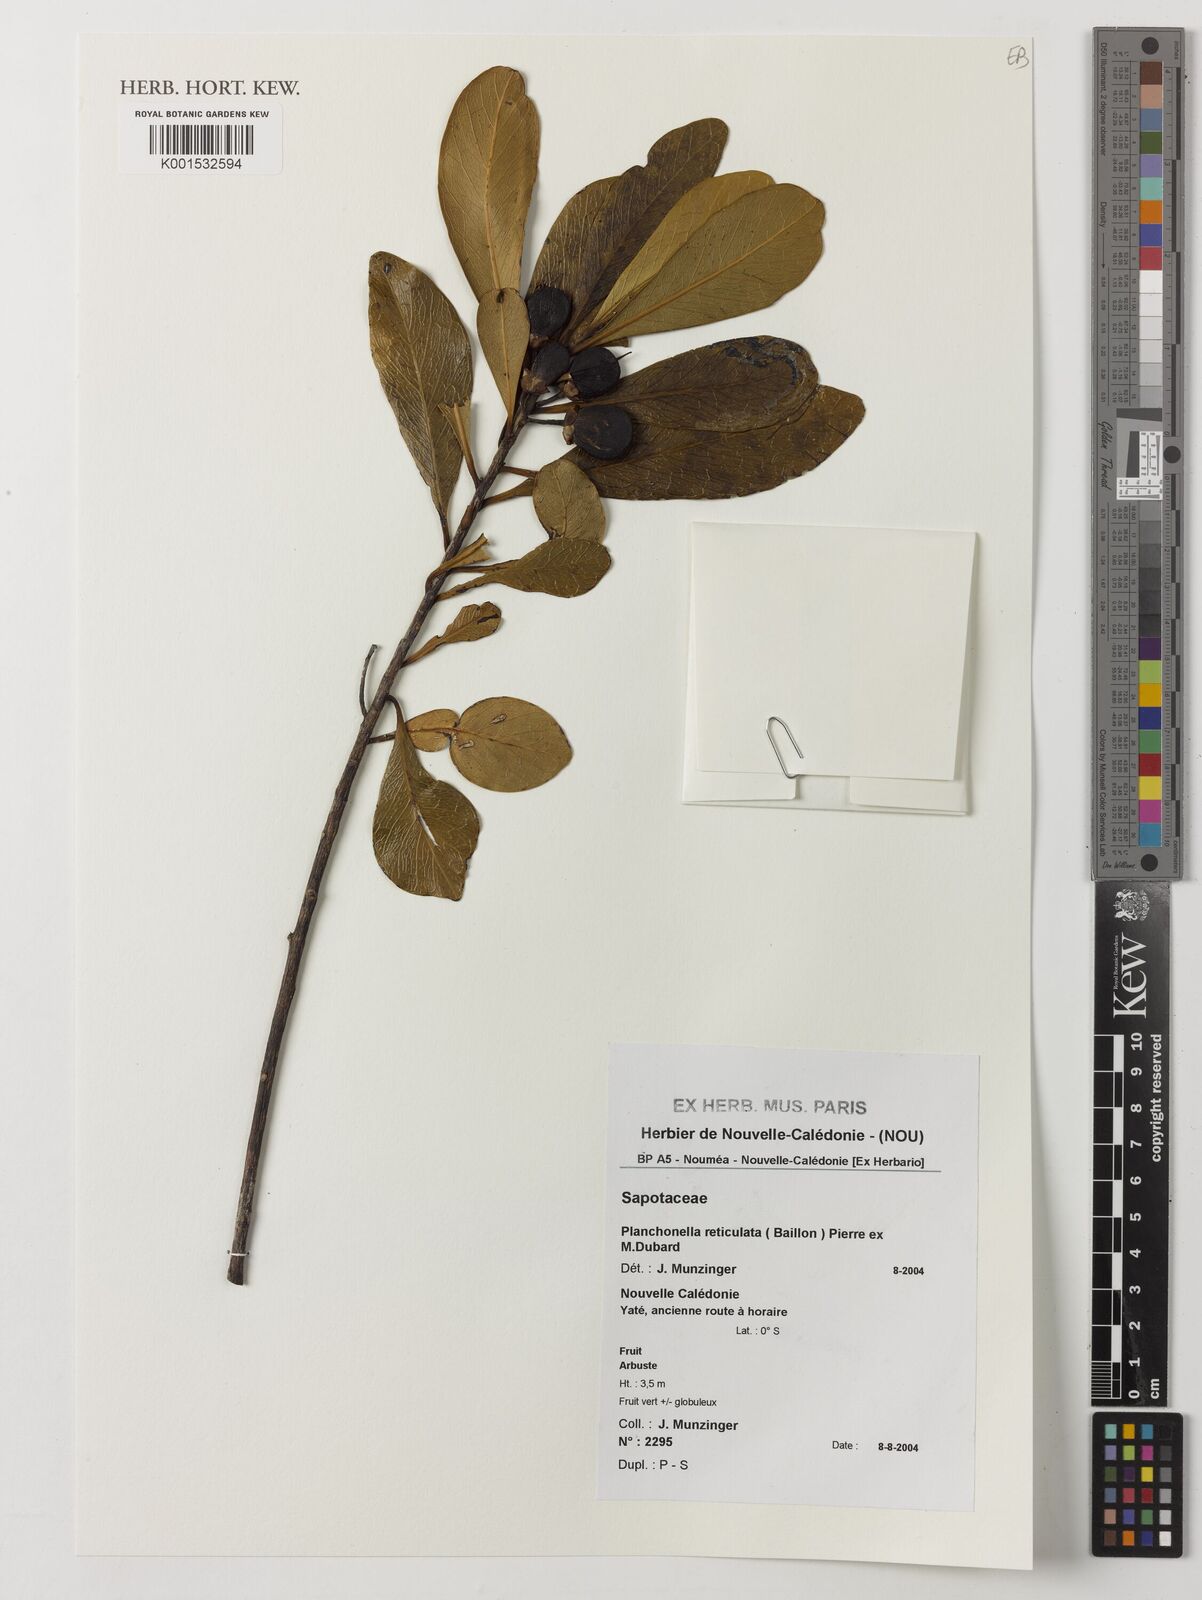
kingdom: Plantae
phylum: Tracheophyta
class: Magnoliopsida
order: Ericales
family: Sapotaceae
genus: Planchonella
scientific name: Planchonella reticulata
